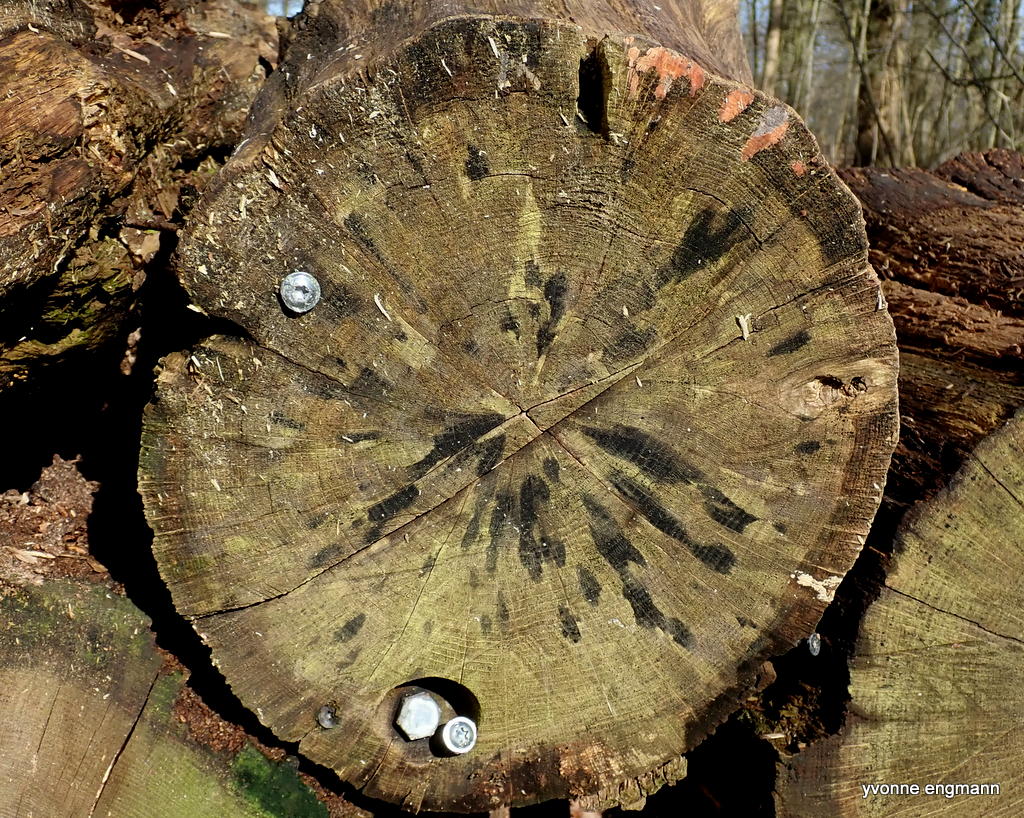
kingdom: Fungi
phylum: Ascomycota
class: Leotiomycetes
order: Helotiales
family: Helotiaceae
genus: Bispora
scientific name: Bispora pallescens
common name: måtte-snitskive
